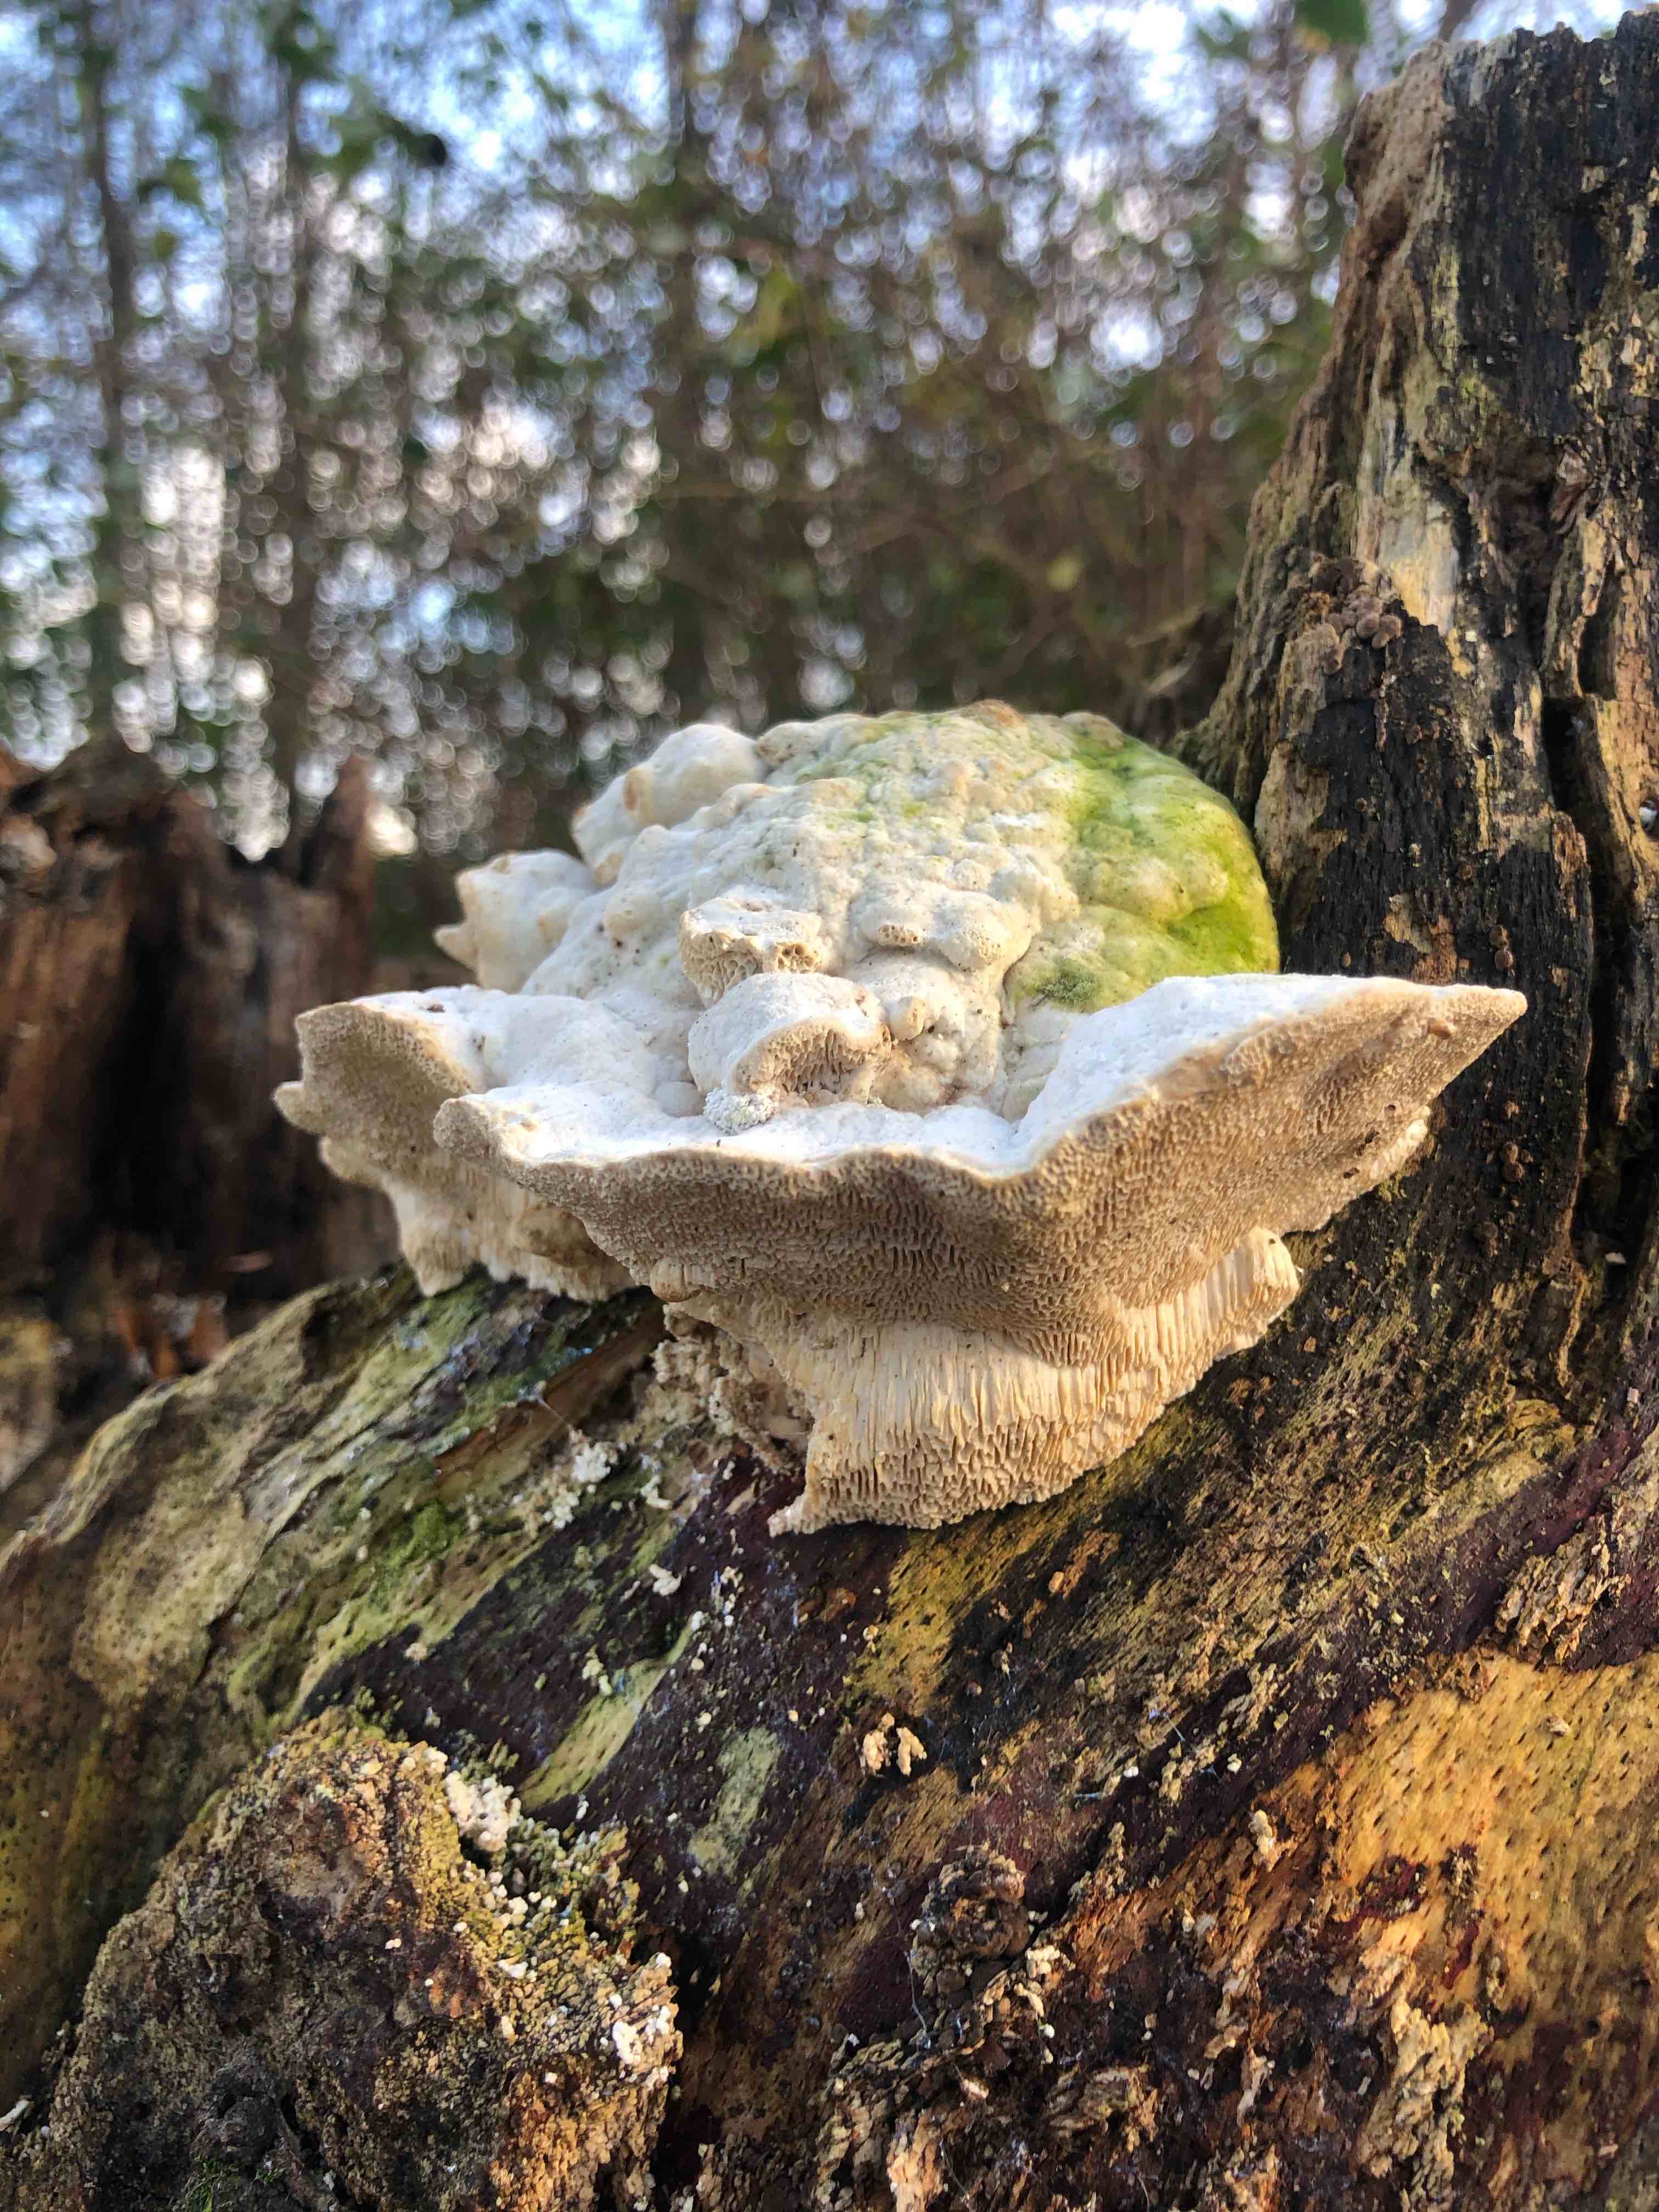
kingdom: Fungi
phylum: Basidiomycota
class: Agaricomycetes
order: Polyporales
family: Polyporaceae
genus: Trametes
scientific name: Trametes gibbosa
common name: puklet læderporesvamp
